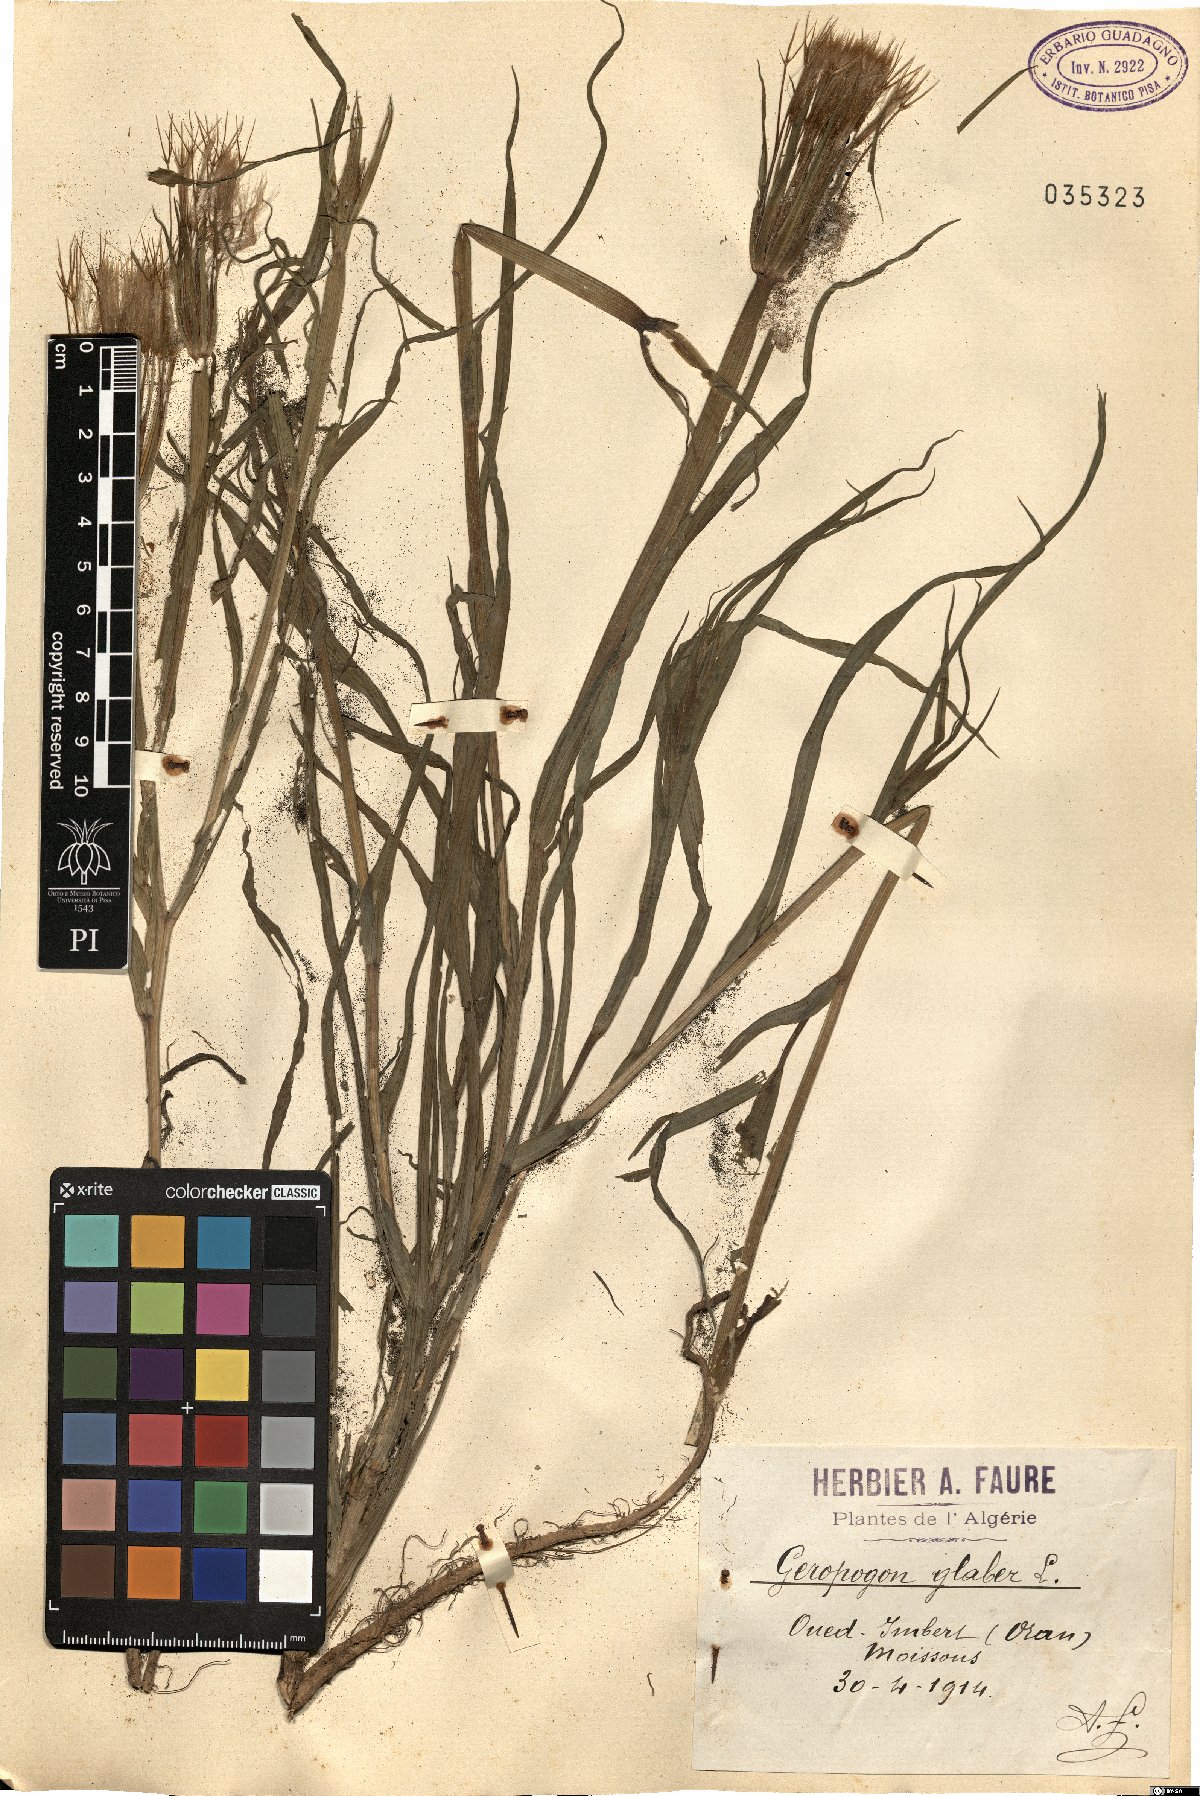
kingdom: Plantae
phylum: Tracheophyta
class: Magnoliopsida
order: Asterales
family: Asteraceae
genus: Geropogon
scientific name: Geropogon hybridus
